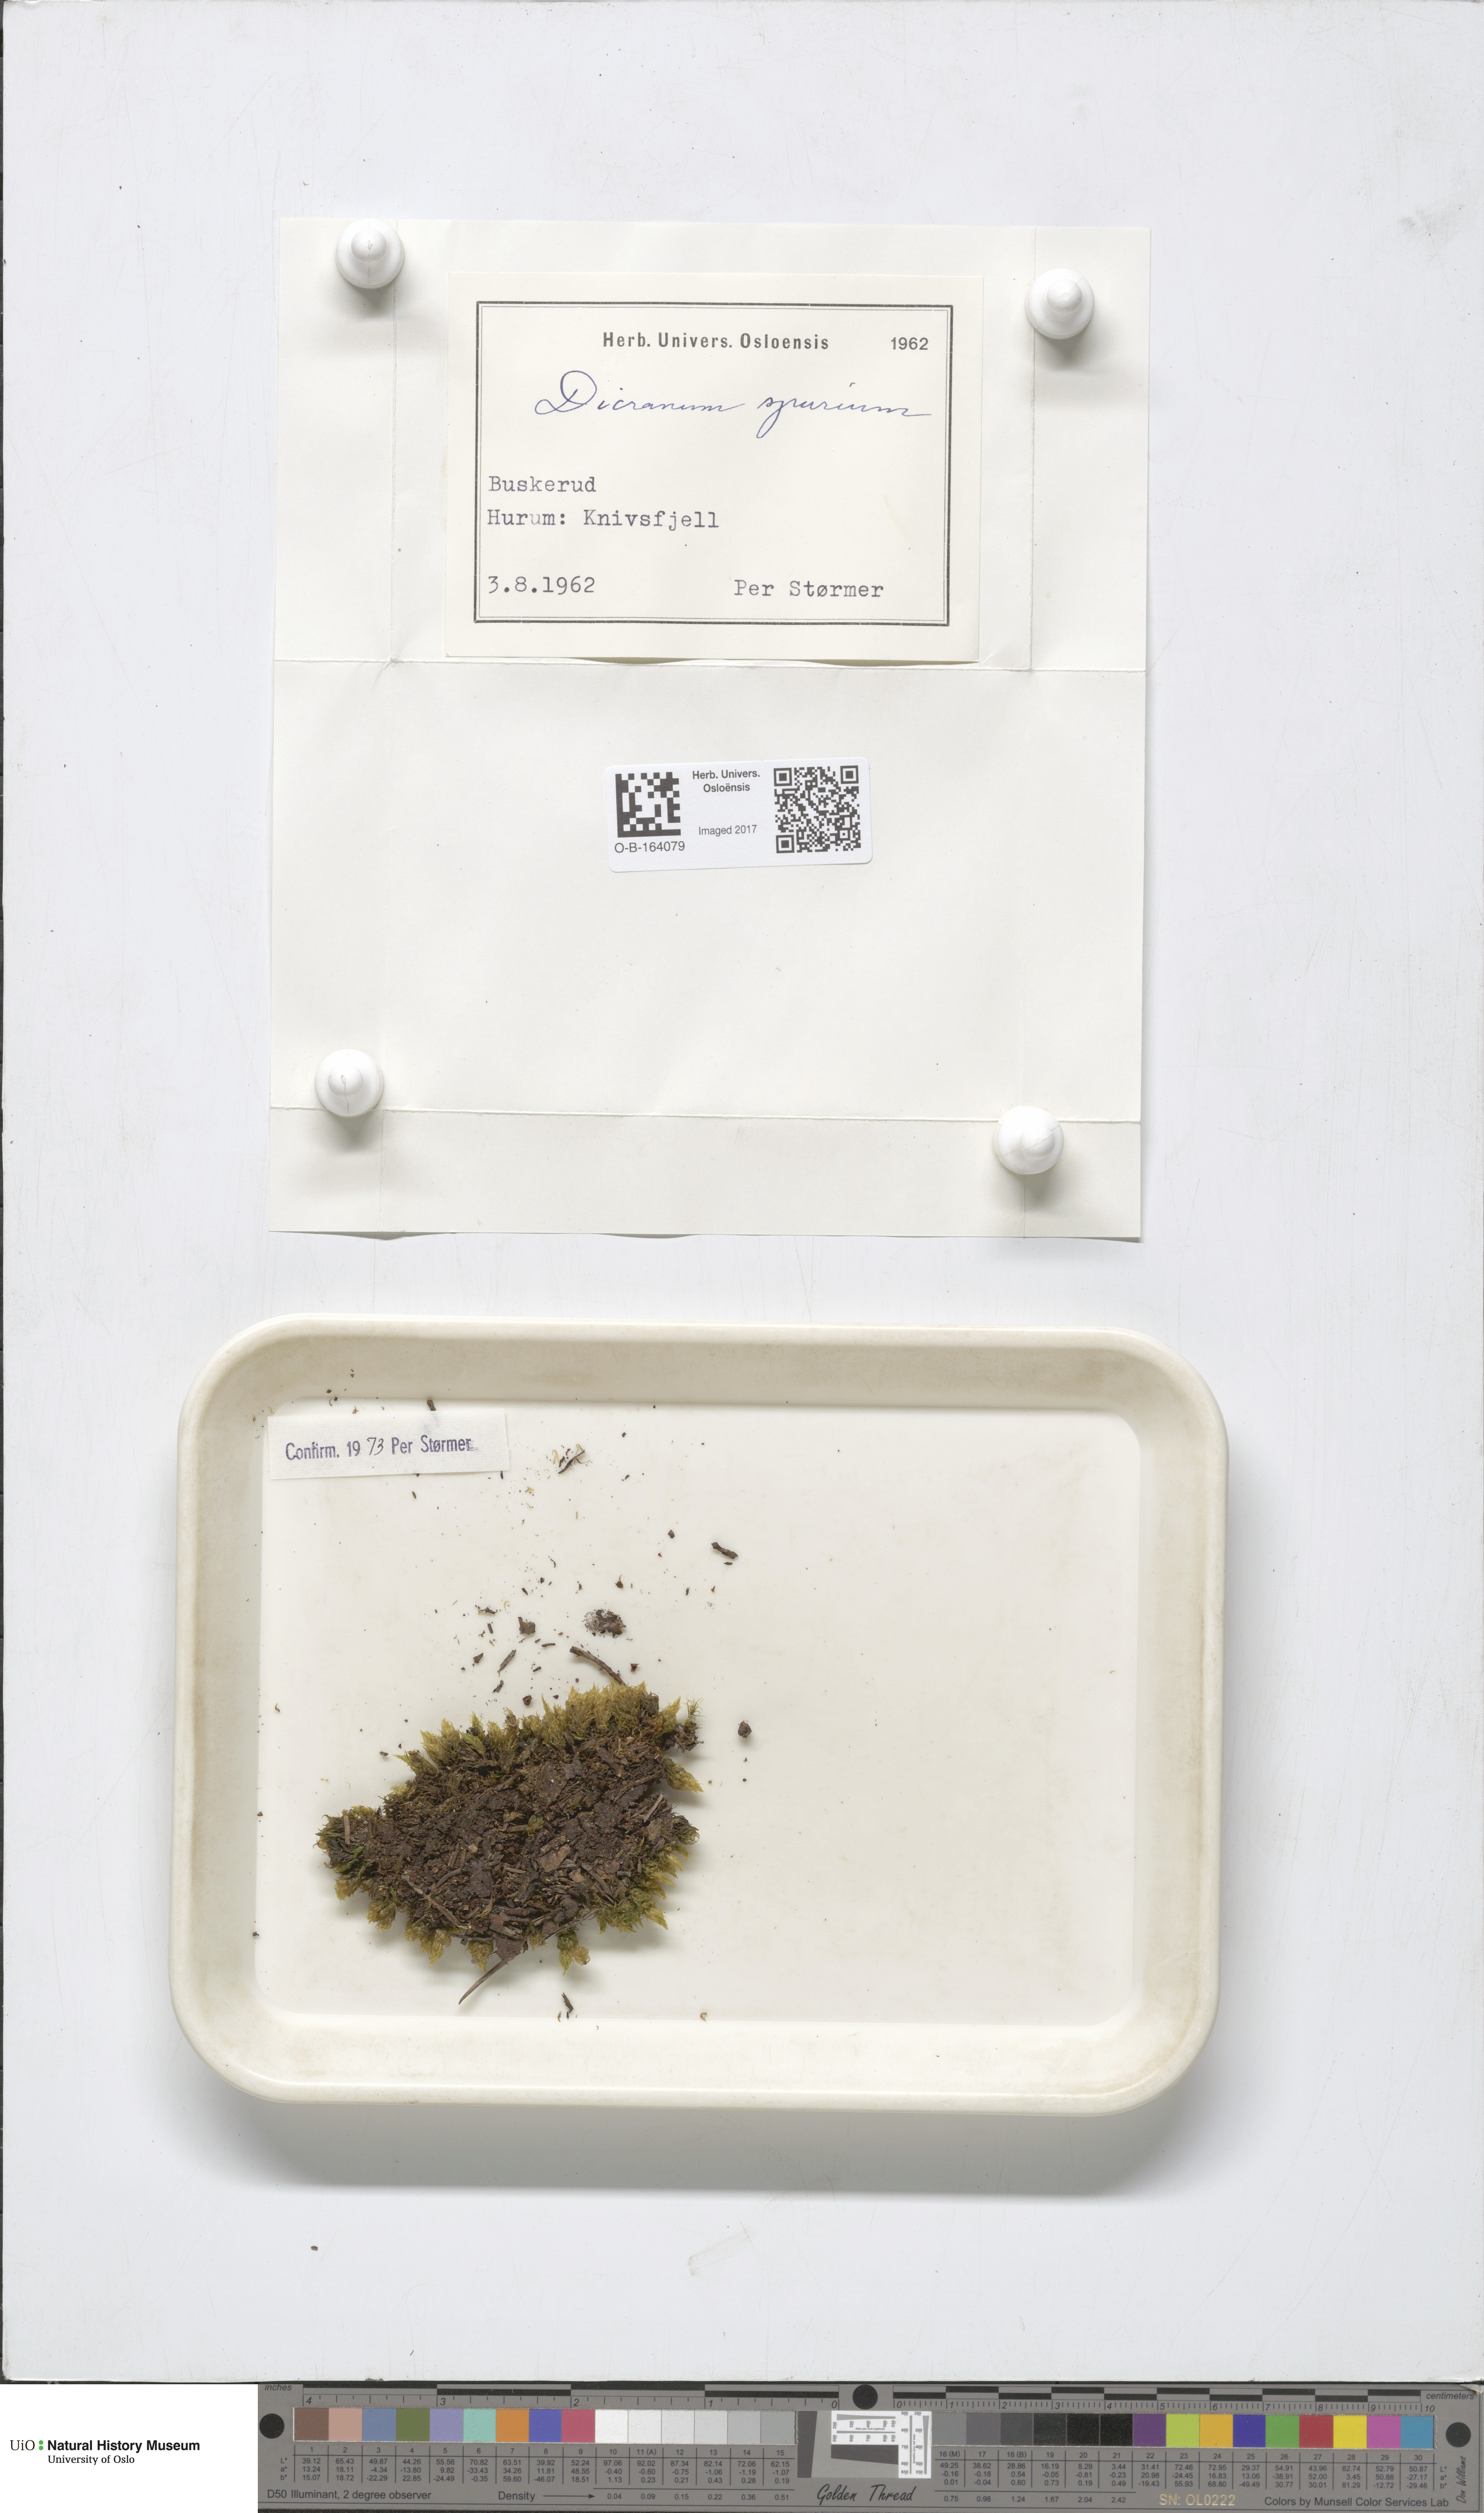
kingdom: Plantae
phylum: Bryophyta
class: Bryopsida
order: Dicranales
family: Dicranaceae
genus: Dicranum
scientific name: Dicranum spurium
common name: Spurred broom moss
